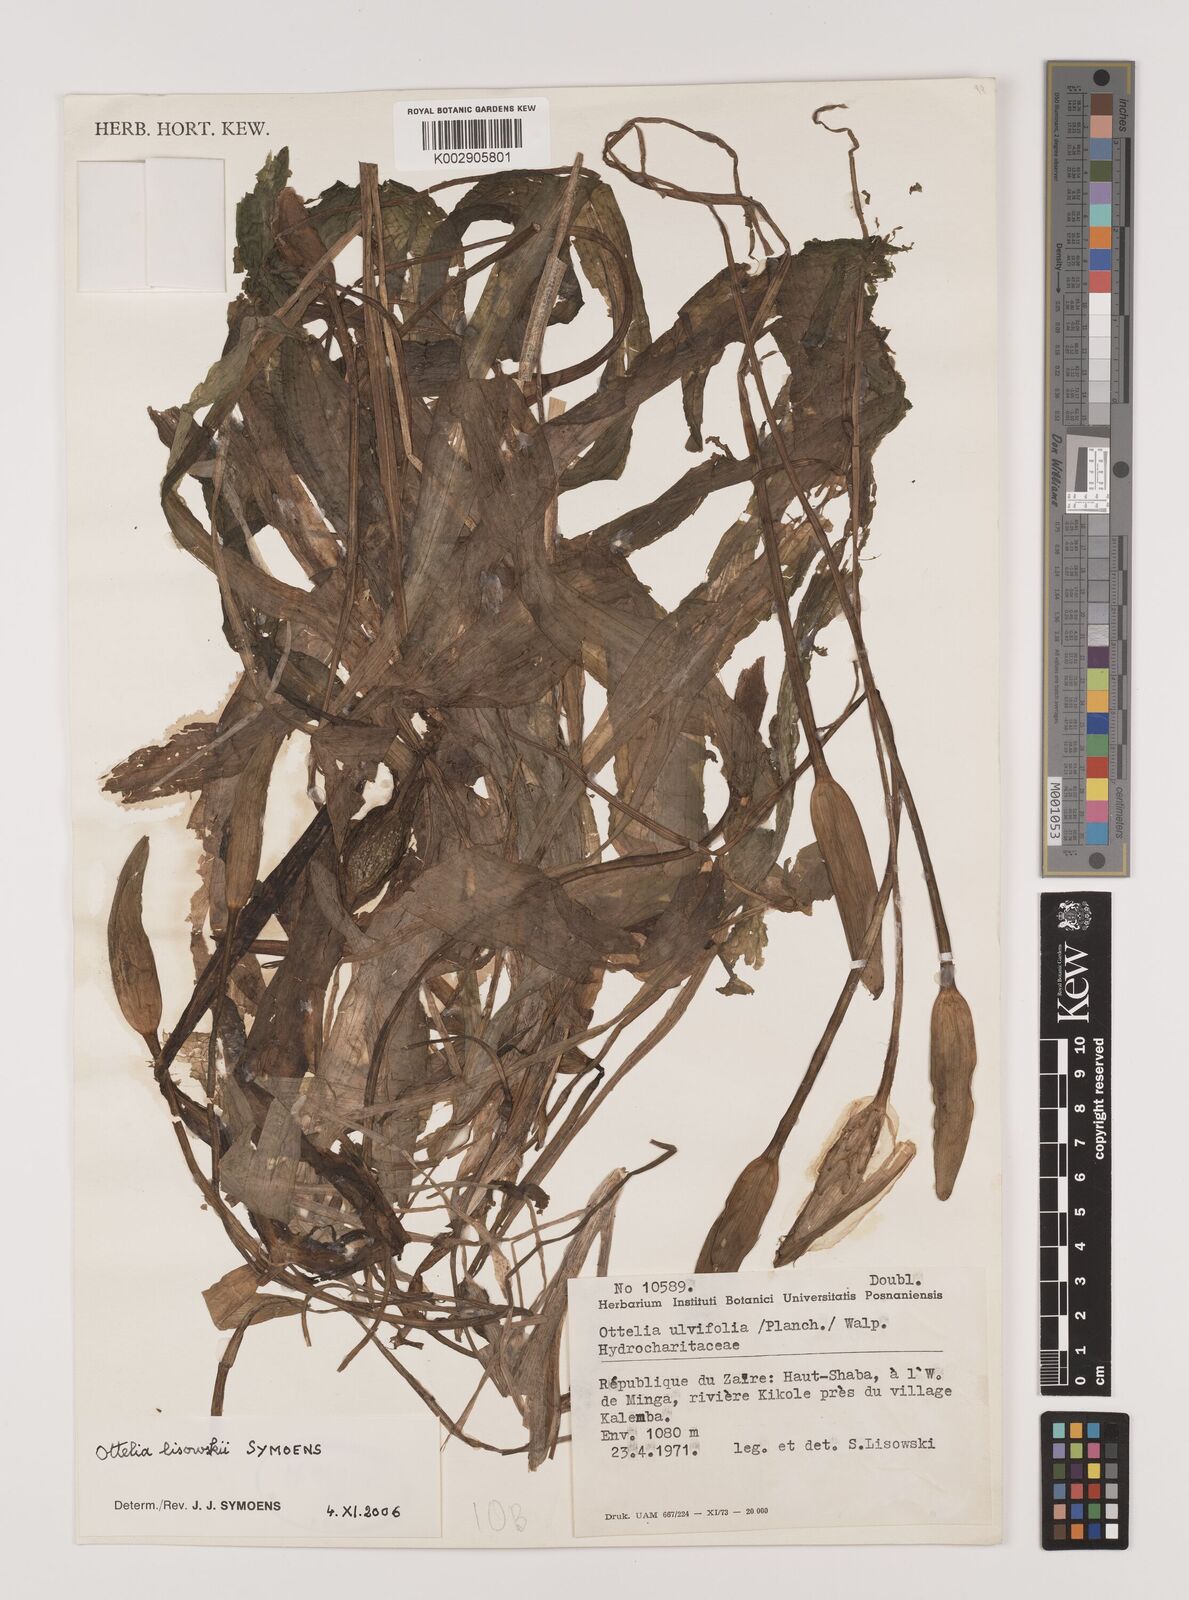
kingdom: Plantae
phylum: Tracheophyta
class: Liliopsida
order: Alismatales
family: Hydrocharitaceae
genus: Ottelia
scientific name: Ottelia lisowskii
